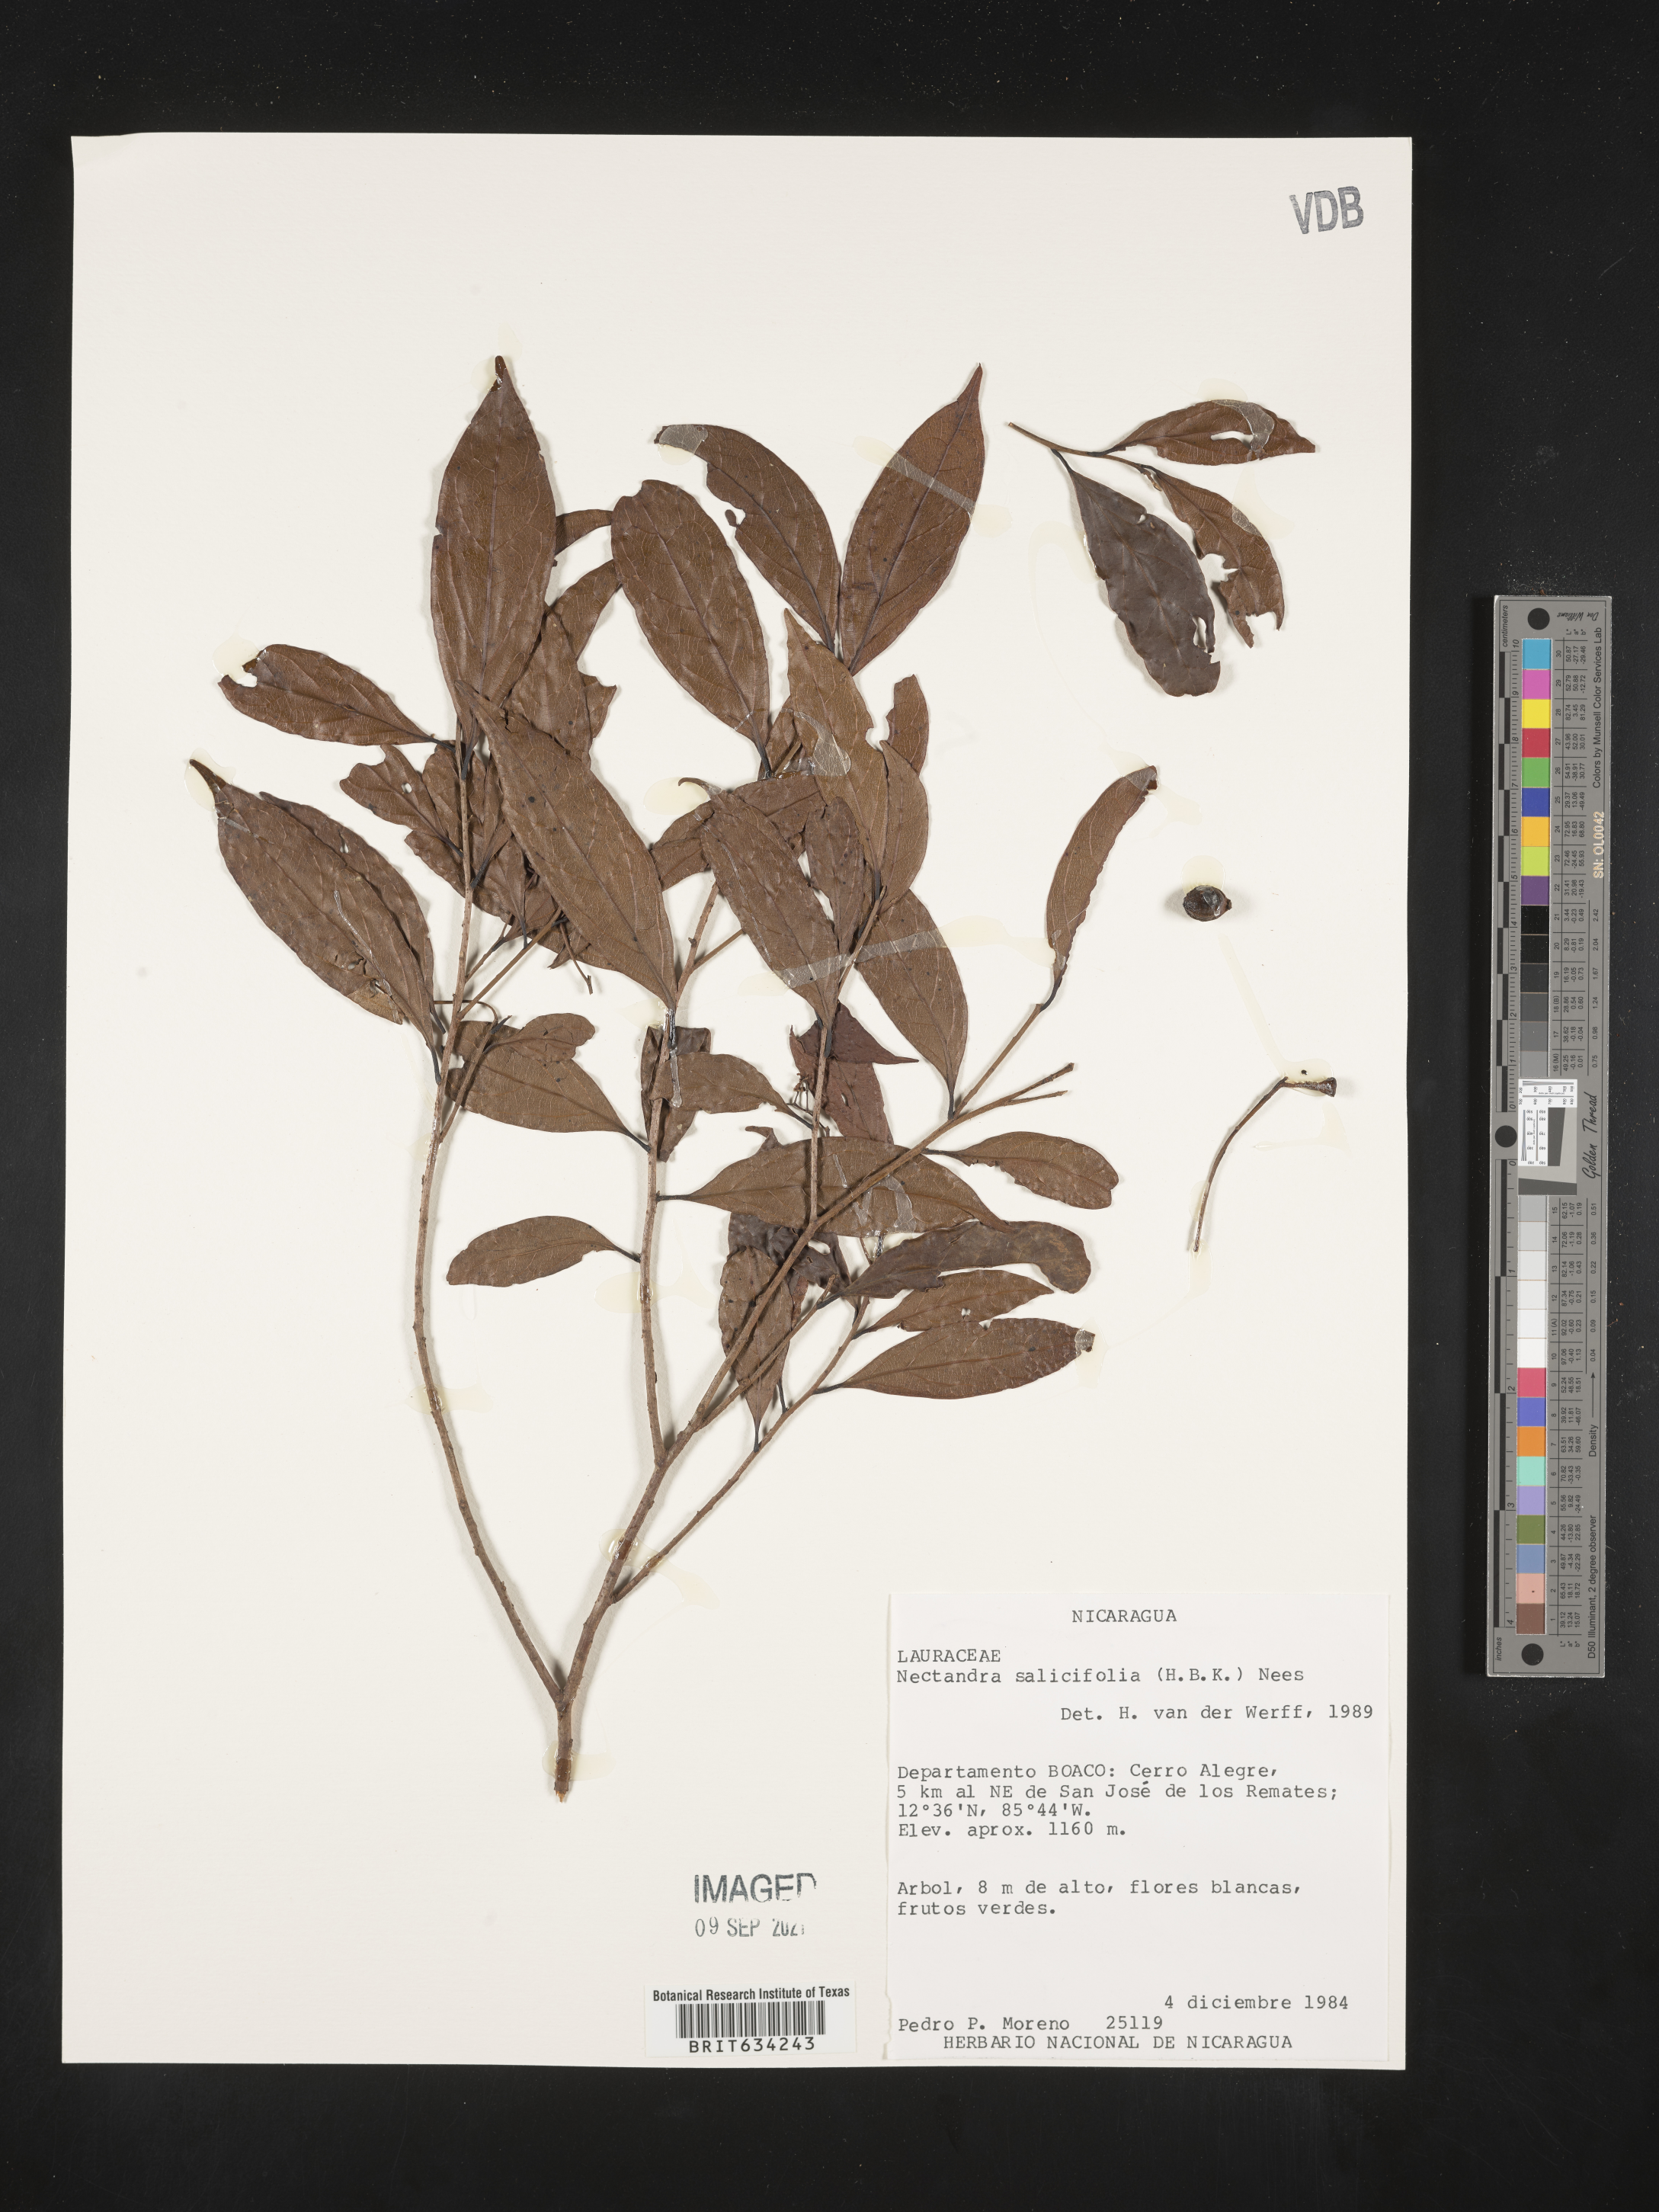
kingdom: Plantae
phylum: Tracheophyta
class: Magnoliopsida
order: Laurales
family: Lauraceae
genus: Nectandra
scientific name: Nectandra
